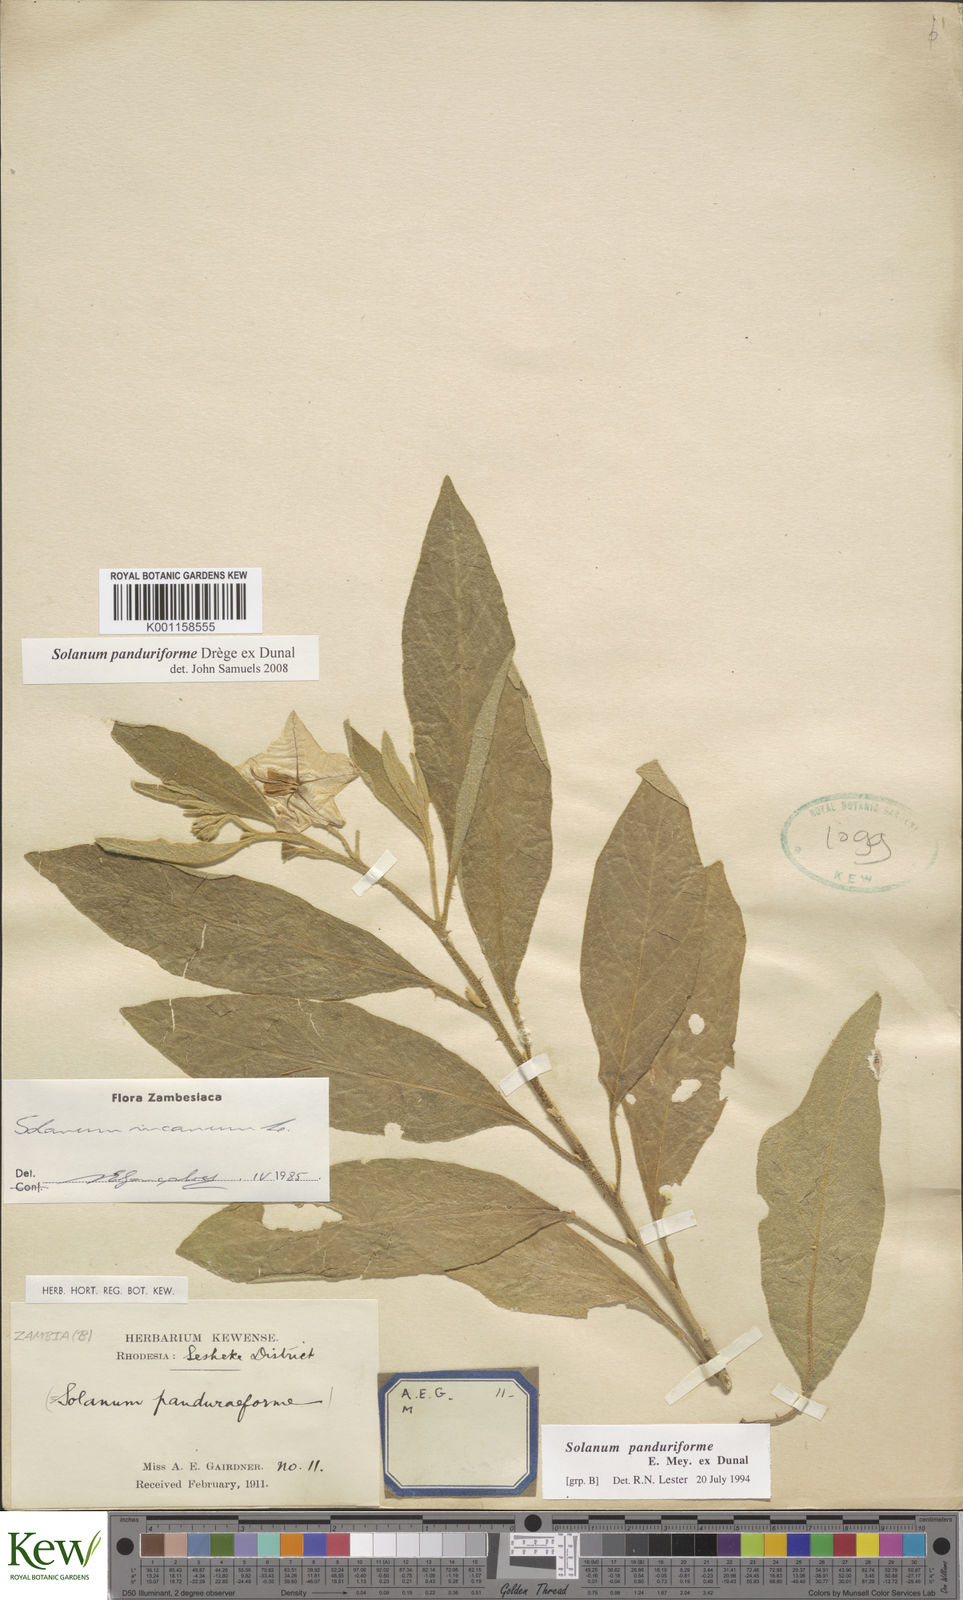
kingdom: Plantae
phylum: Tracheophyta
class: Magnoliopsida
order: Solanales
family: Solanaceae
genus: Solanum
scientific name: Solanum campylacanthum
